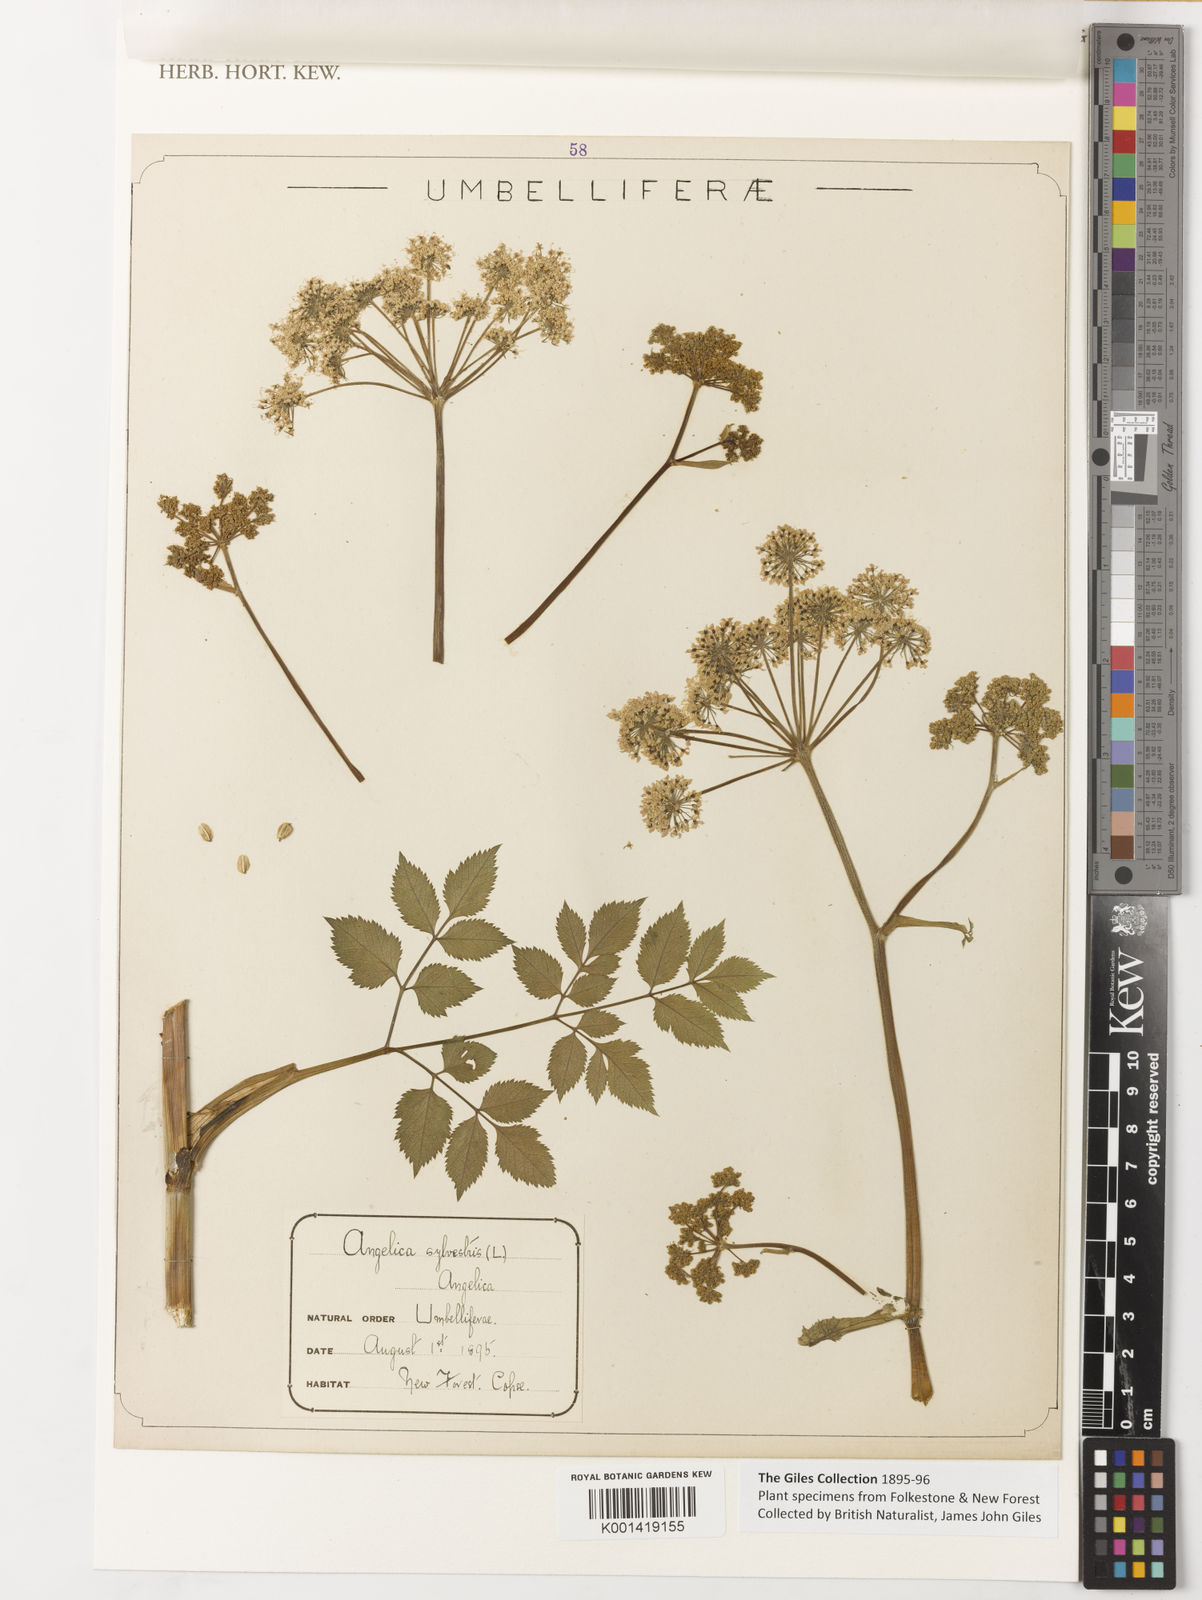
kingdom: Plantae
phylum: Tracheophyta
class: Magnoliopsida
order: Apiales
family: Apiaceae
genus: Angelica
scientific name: Angelica sylvestris
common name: Wild angelica
